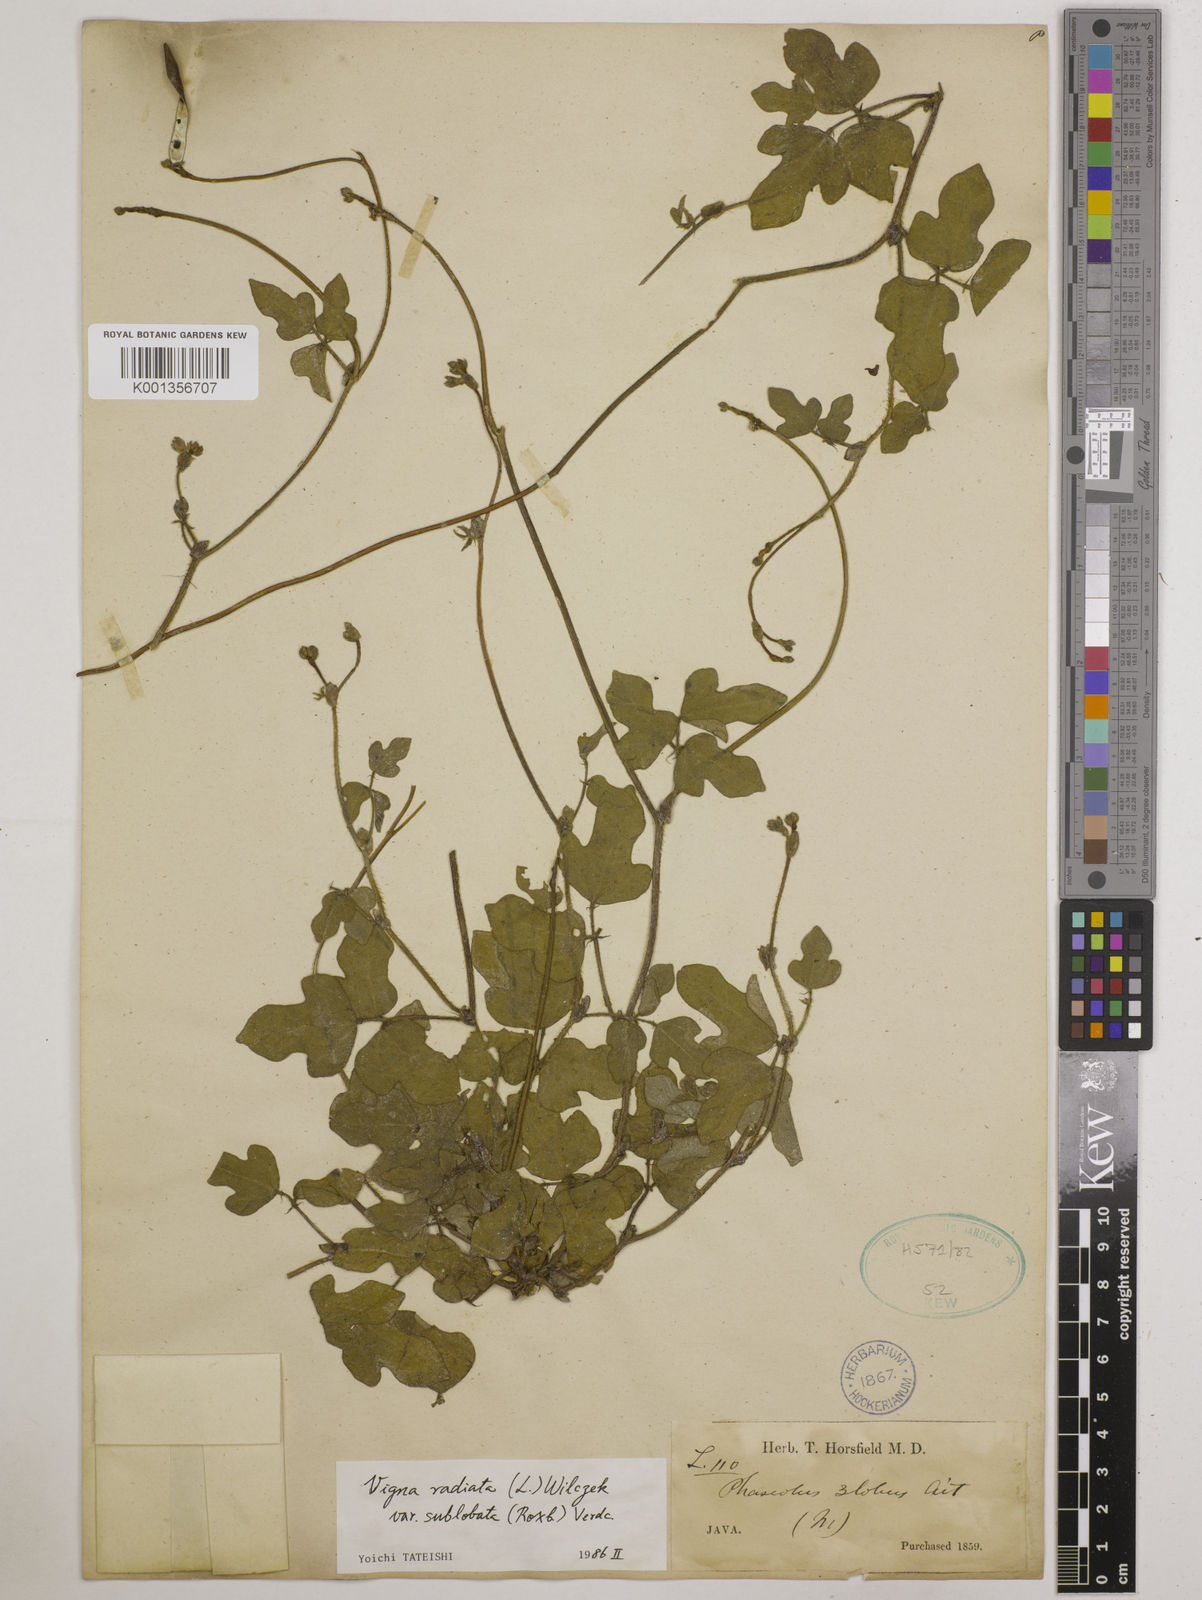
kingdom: Plantae
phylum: Tracheophyta
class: Magnoliopsida
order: Fabales
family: Fabaceae
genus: Vigna
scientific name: Vigna radiata
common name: Mung-bean
